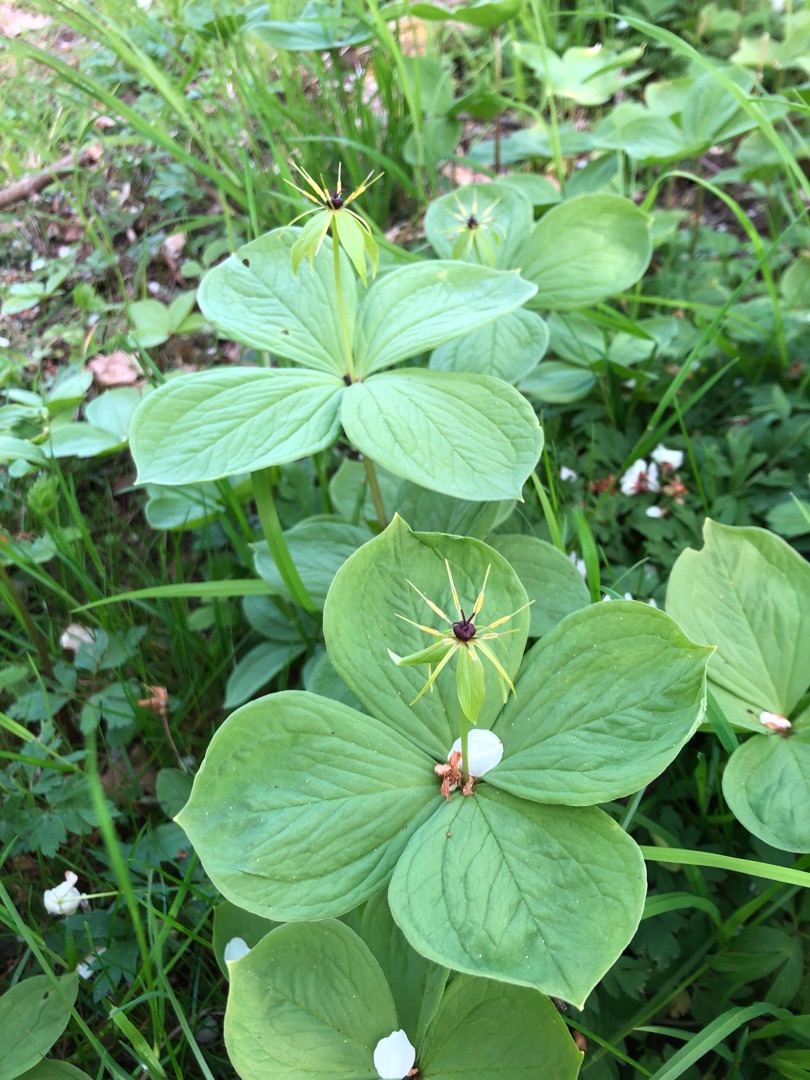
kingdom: Plantae
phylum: Tracheophyta
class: Liliopsida
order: Liliales
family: Melanthiaceae
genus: Paris
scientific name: Paris quadrifolia
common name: Firblad
